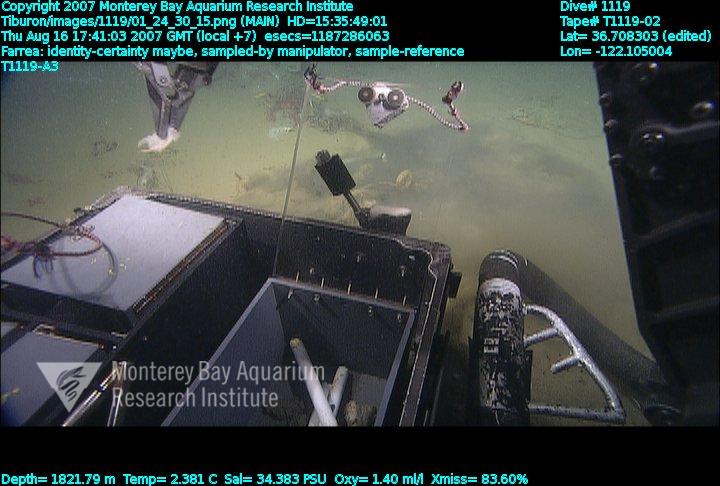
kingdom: Animalia
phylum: Porifera
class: Hexactinellida
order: Sceptrulophora
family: Farreidae
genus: Farrea
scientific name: Farrea
